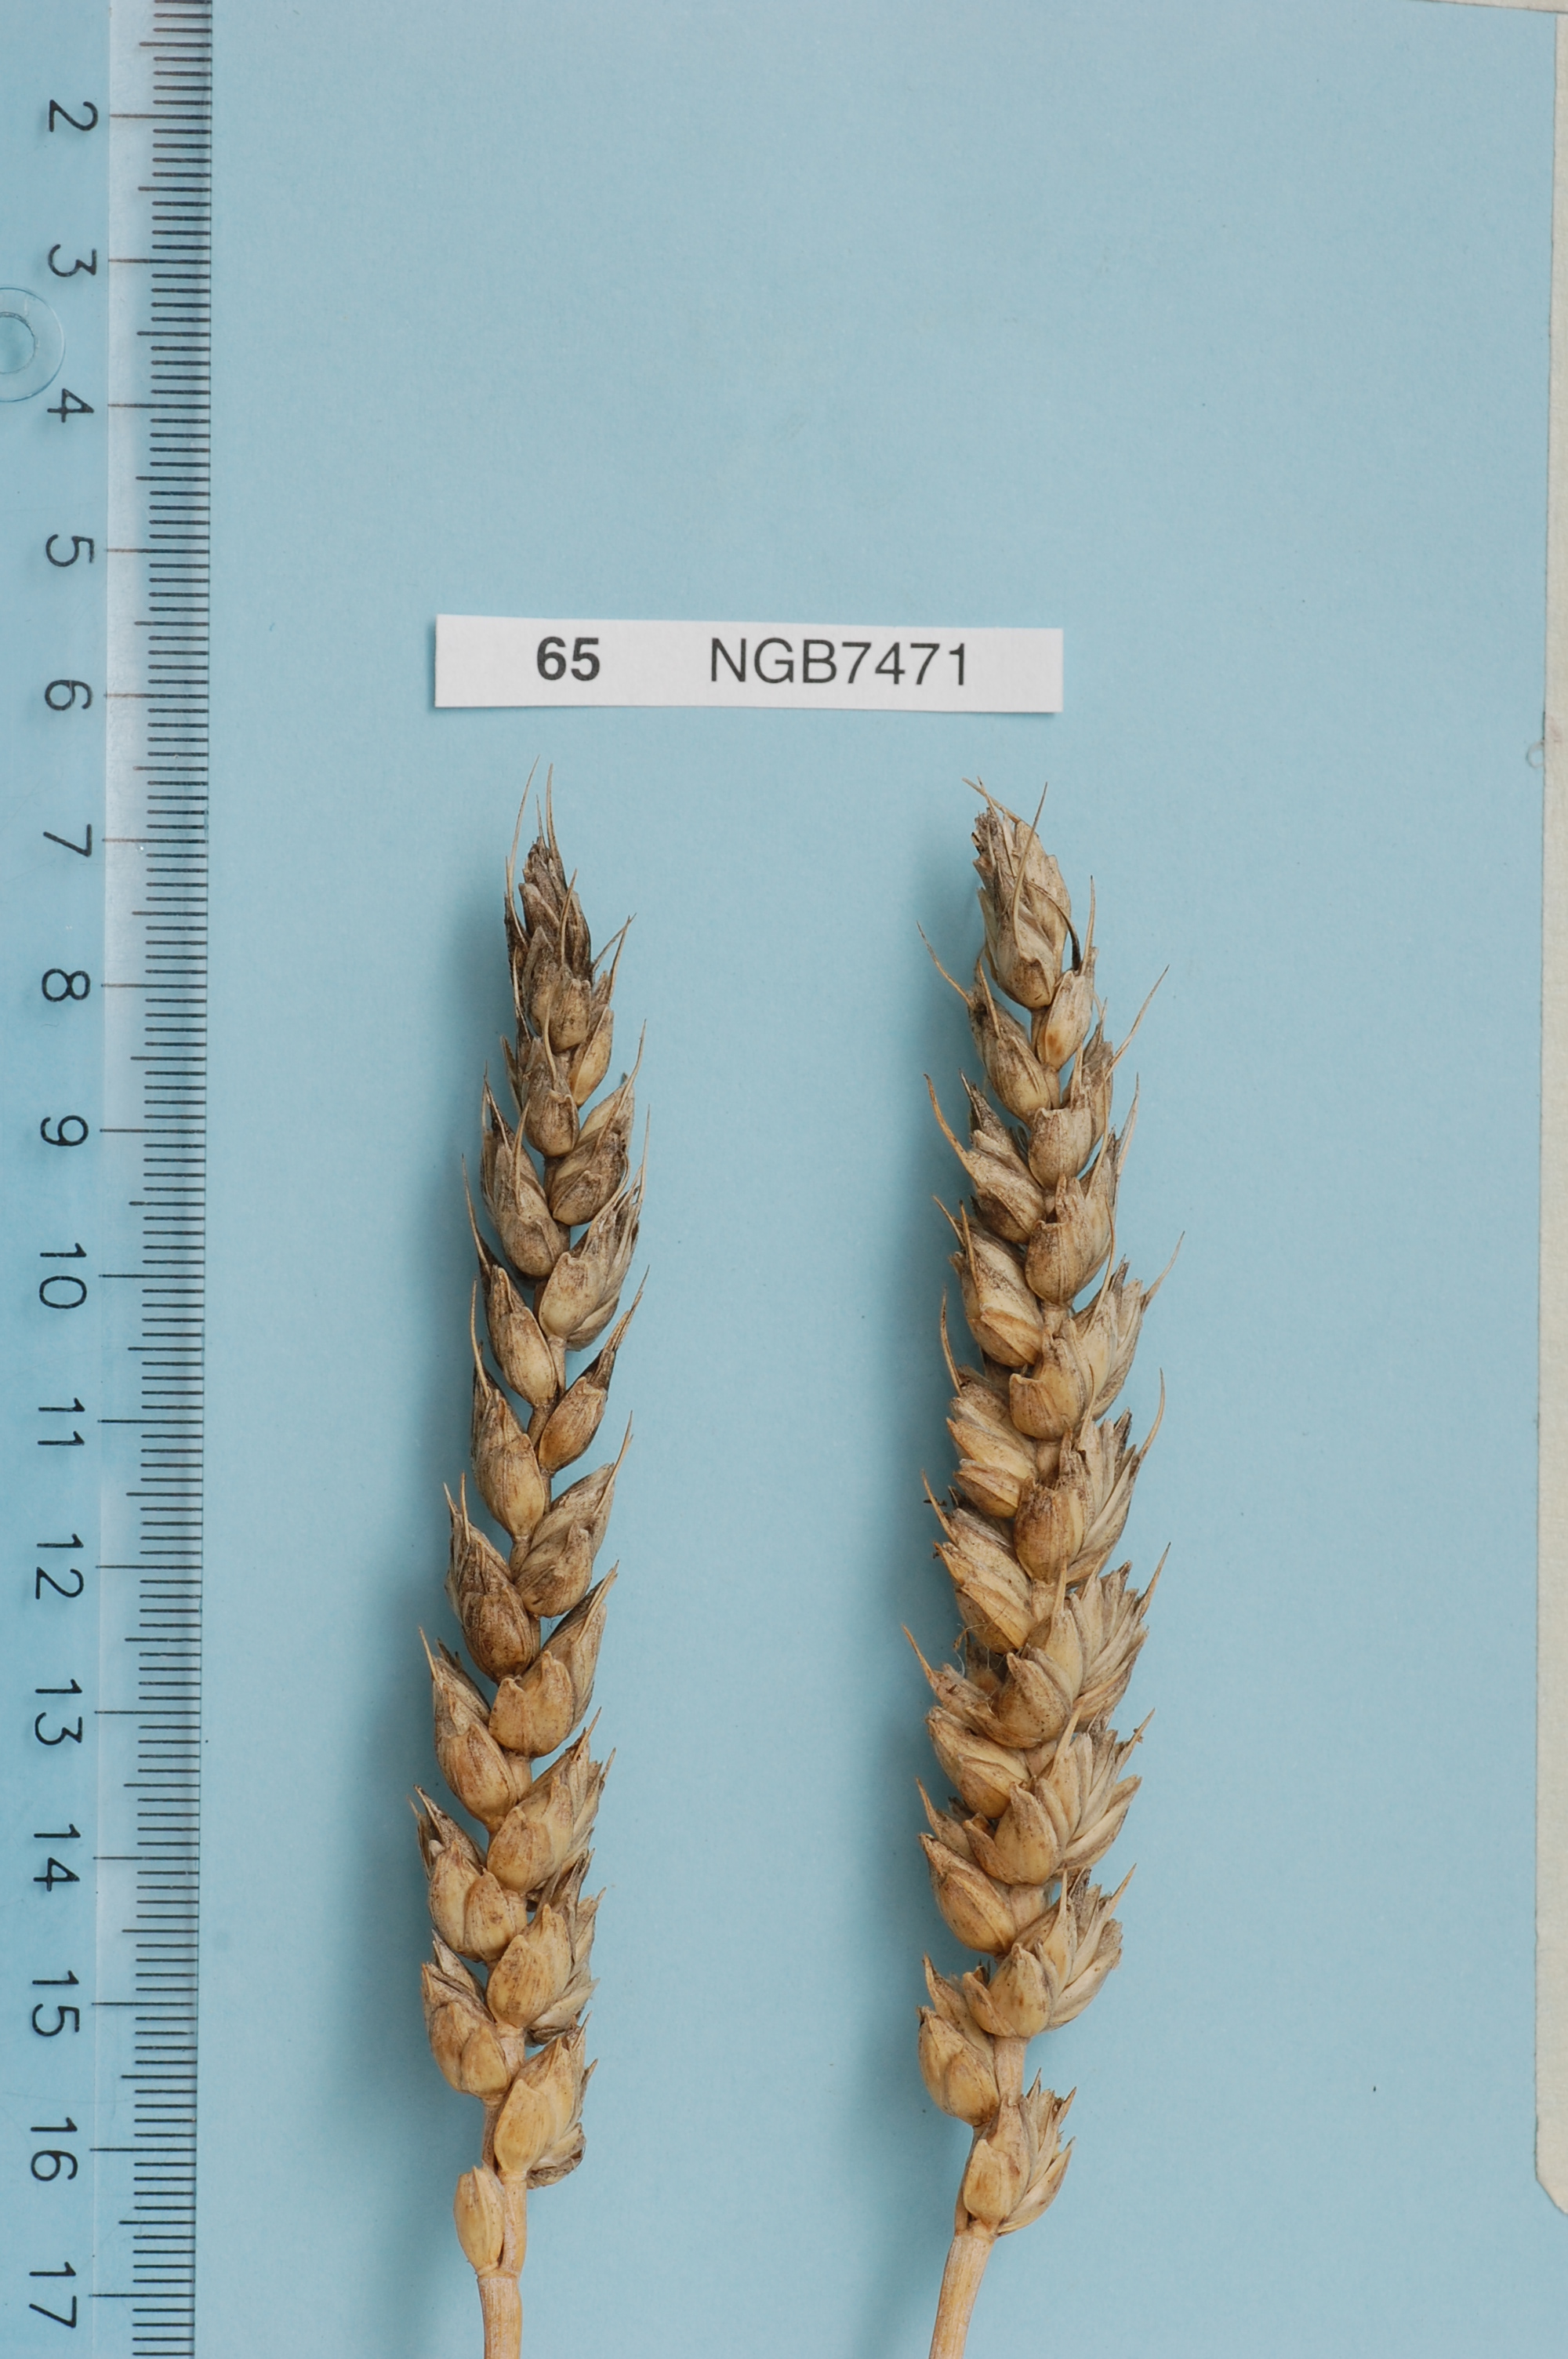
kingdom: Plantae
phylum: Tracheophyta
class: Liliopsida
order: Poales
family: Poaceae
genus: Triticum
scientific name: Triticum aestivum
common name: Common wheat
